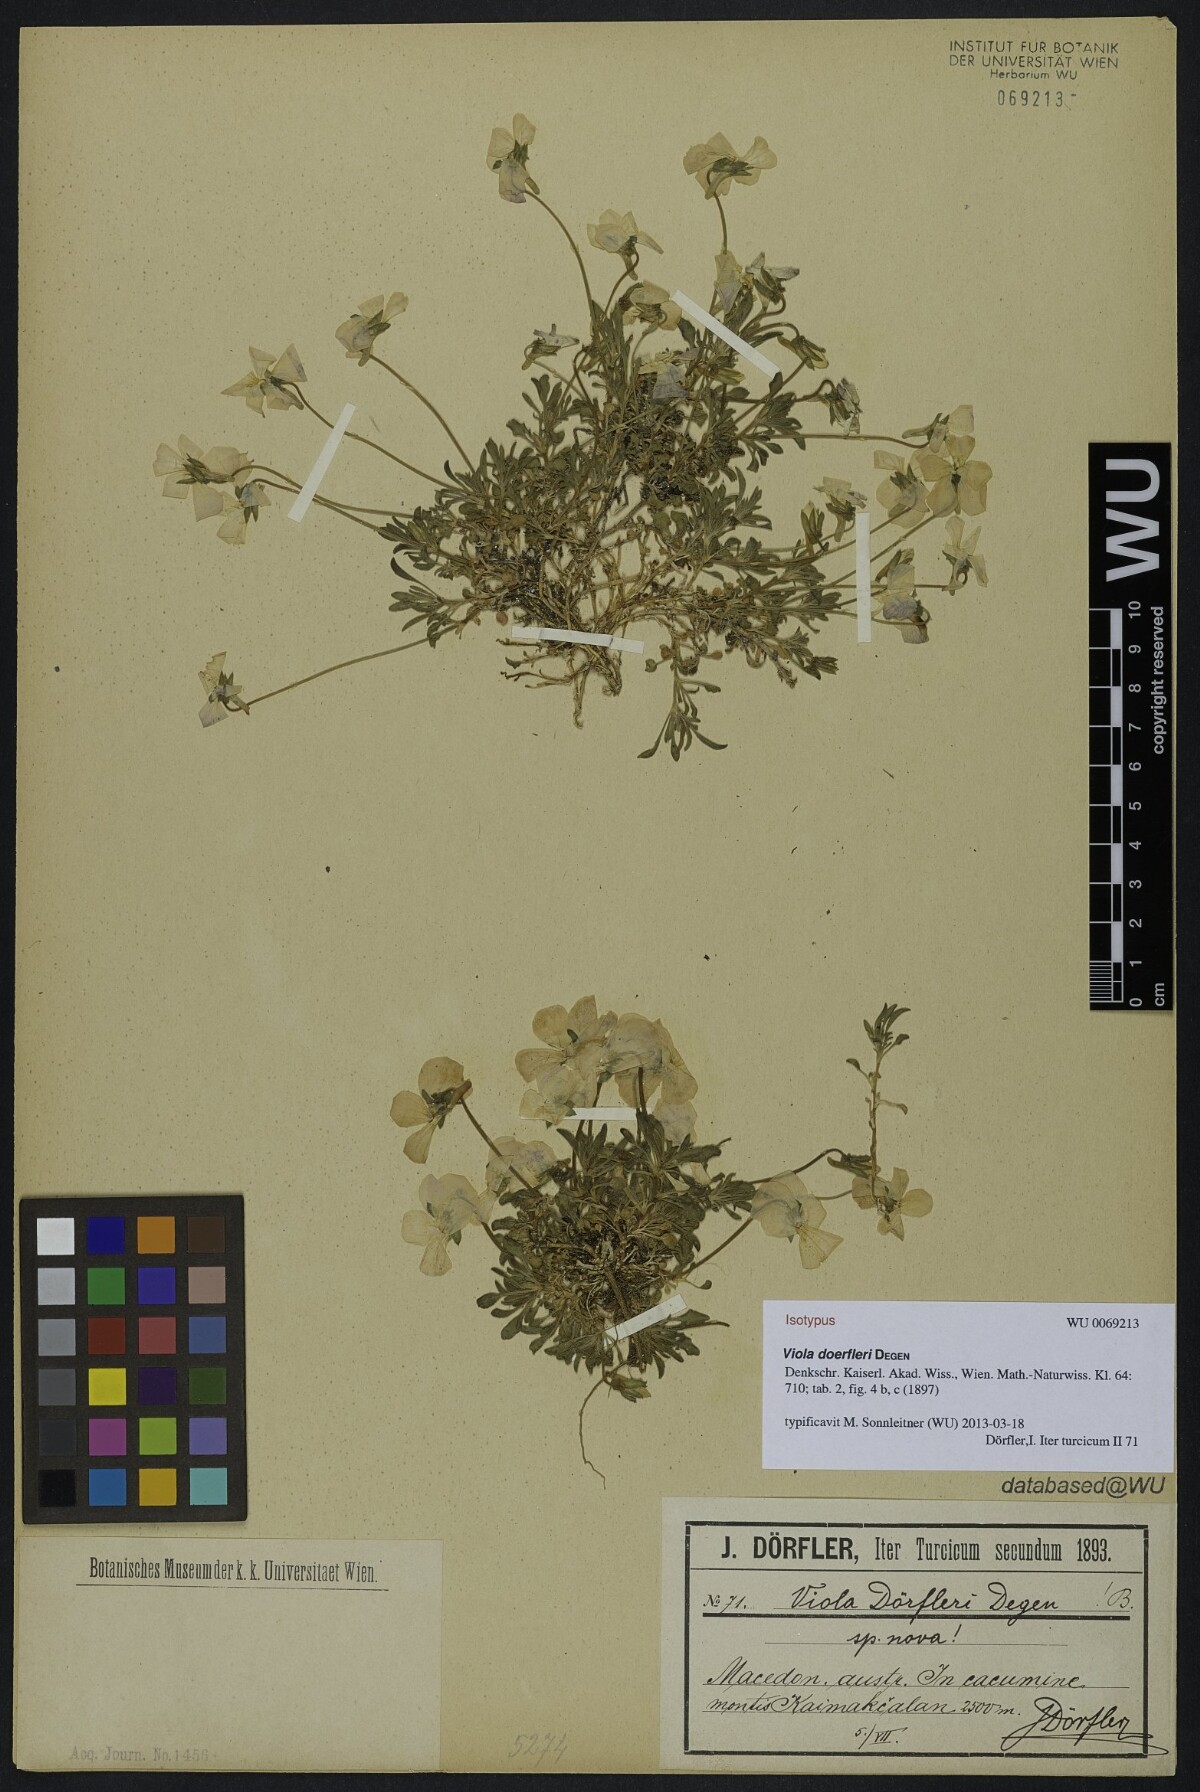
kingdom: Plantae
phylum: Tracheophyta
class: Magnoliopsida
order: Malpighiales
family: Violaceae
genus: Viola
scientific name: Viola doerfleri
